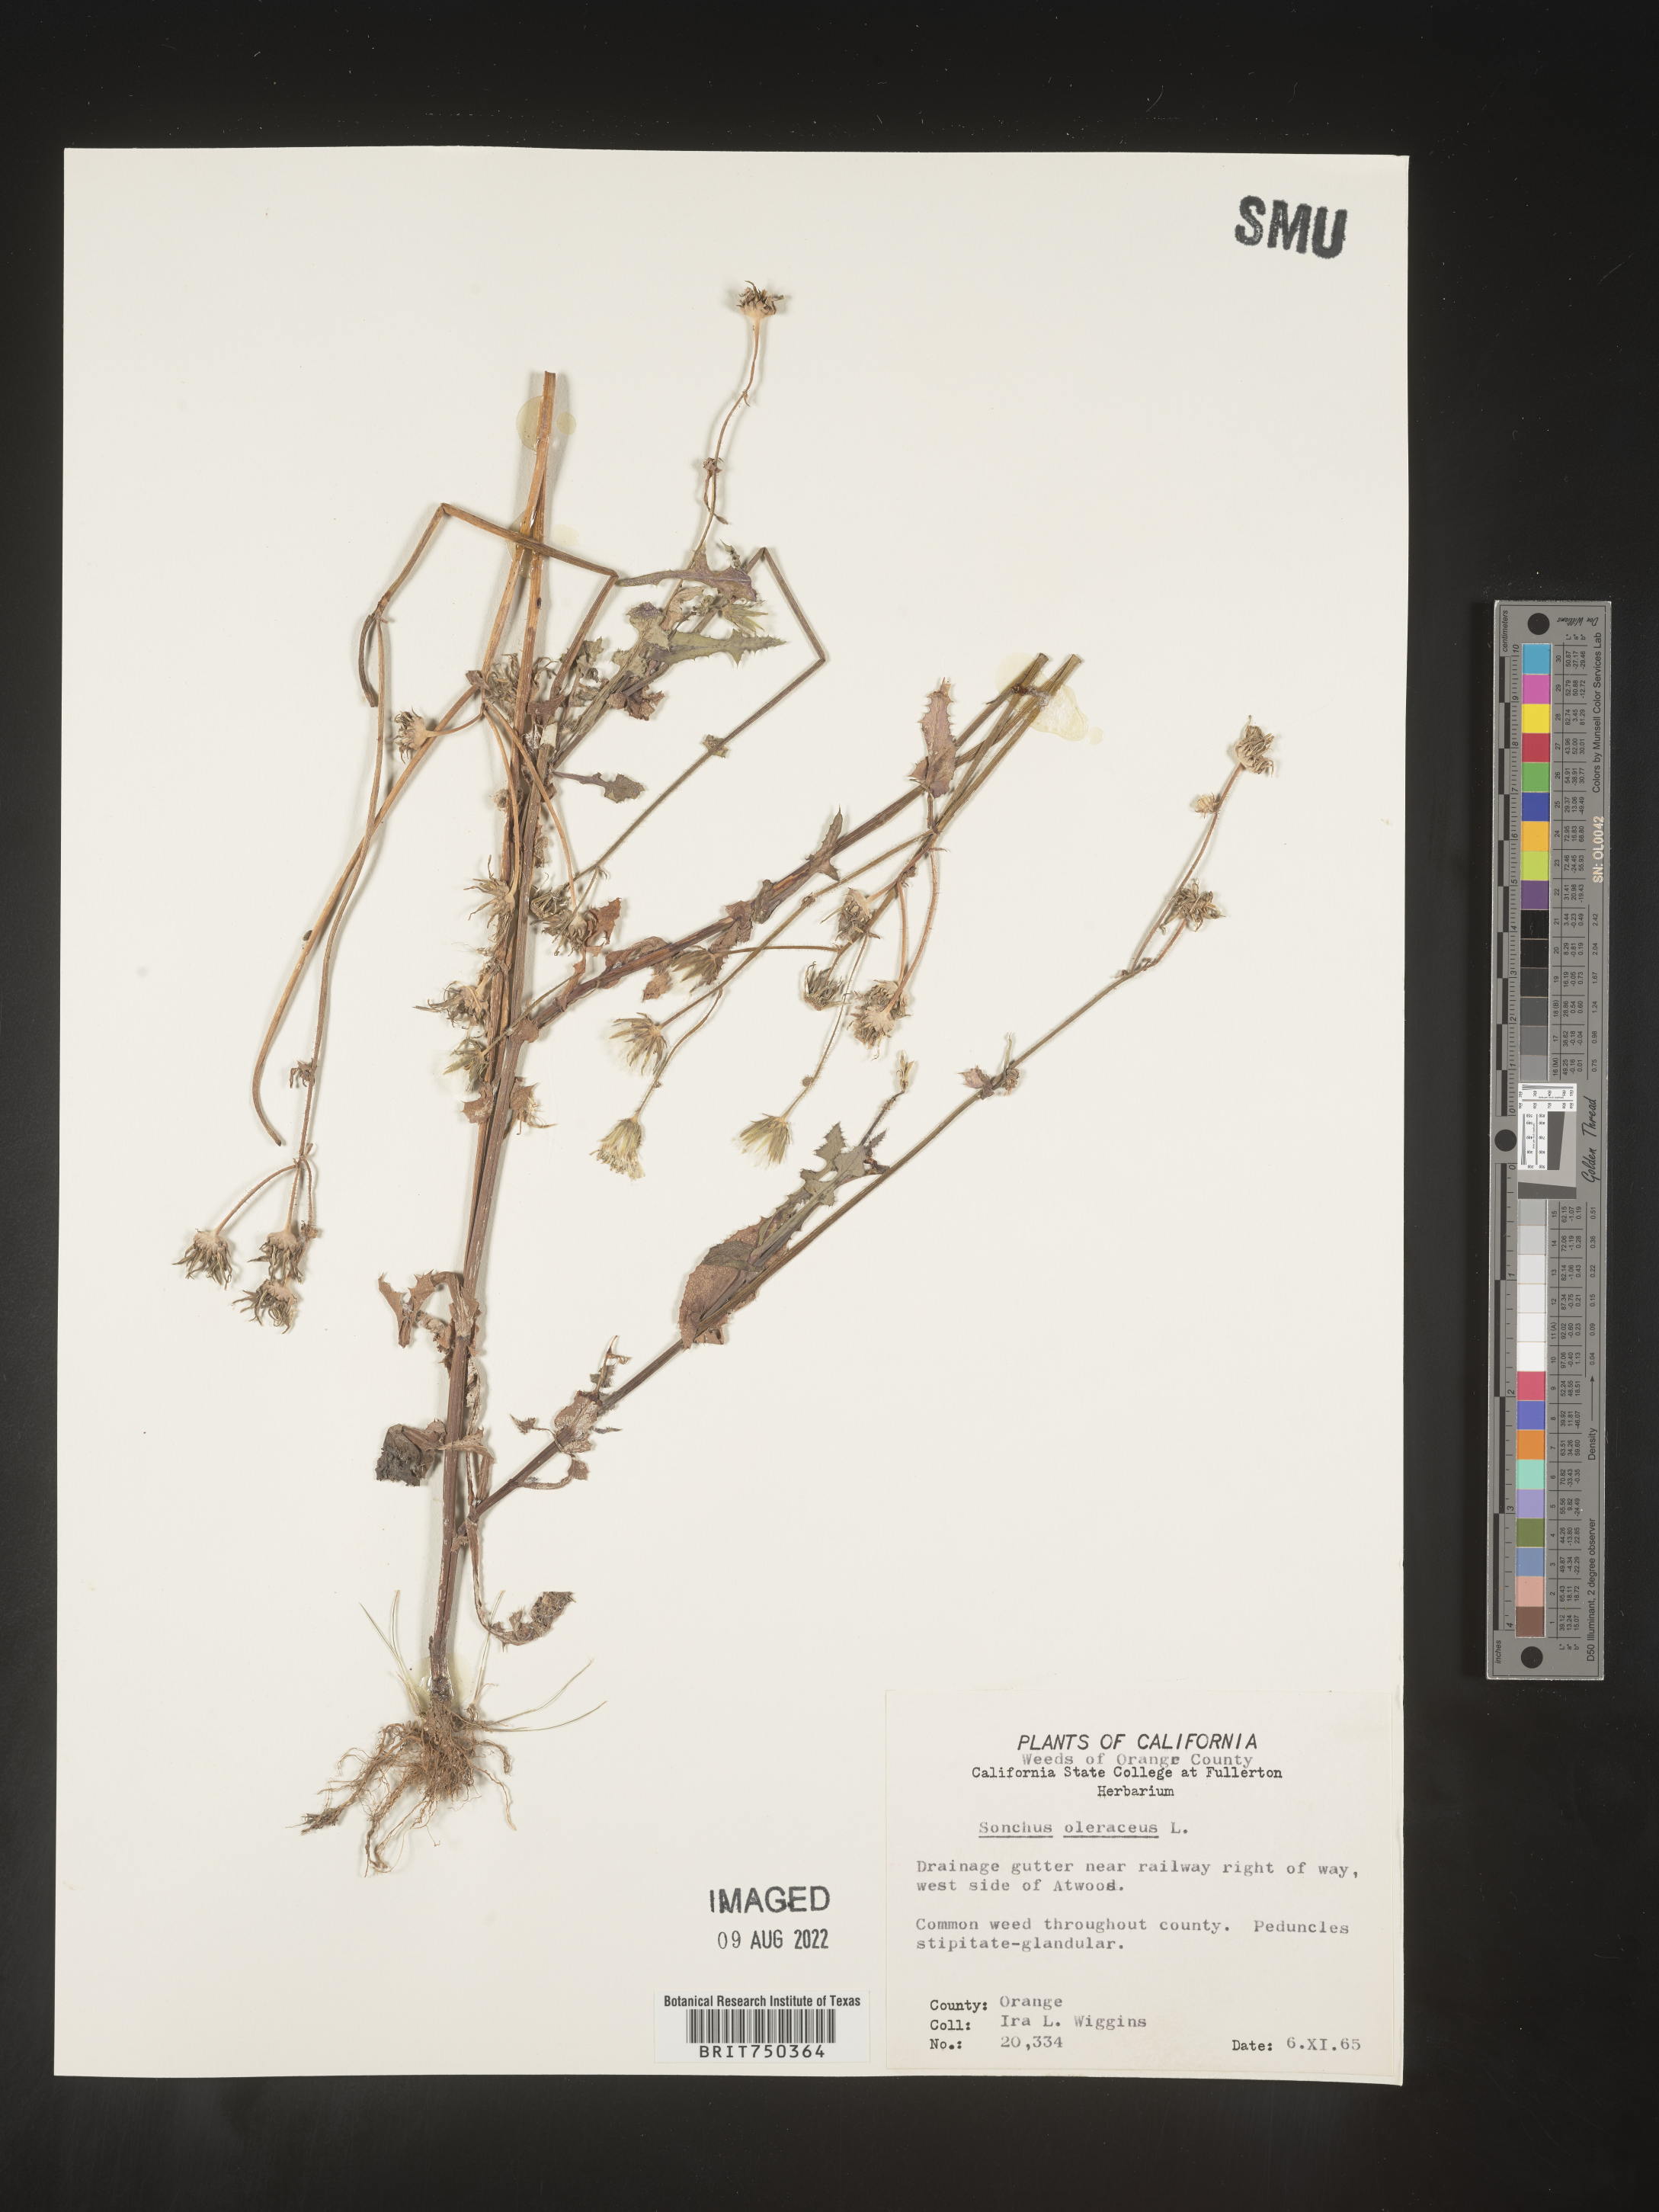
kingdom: Plantae
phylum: Tracheophyta
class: Magnoliopsida
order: Asterales
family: Asteraceae
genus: Sonchus
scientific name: Sonchus oleraceus
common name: Common sowthistle
